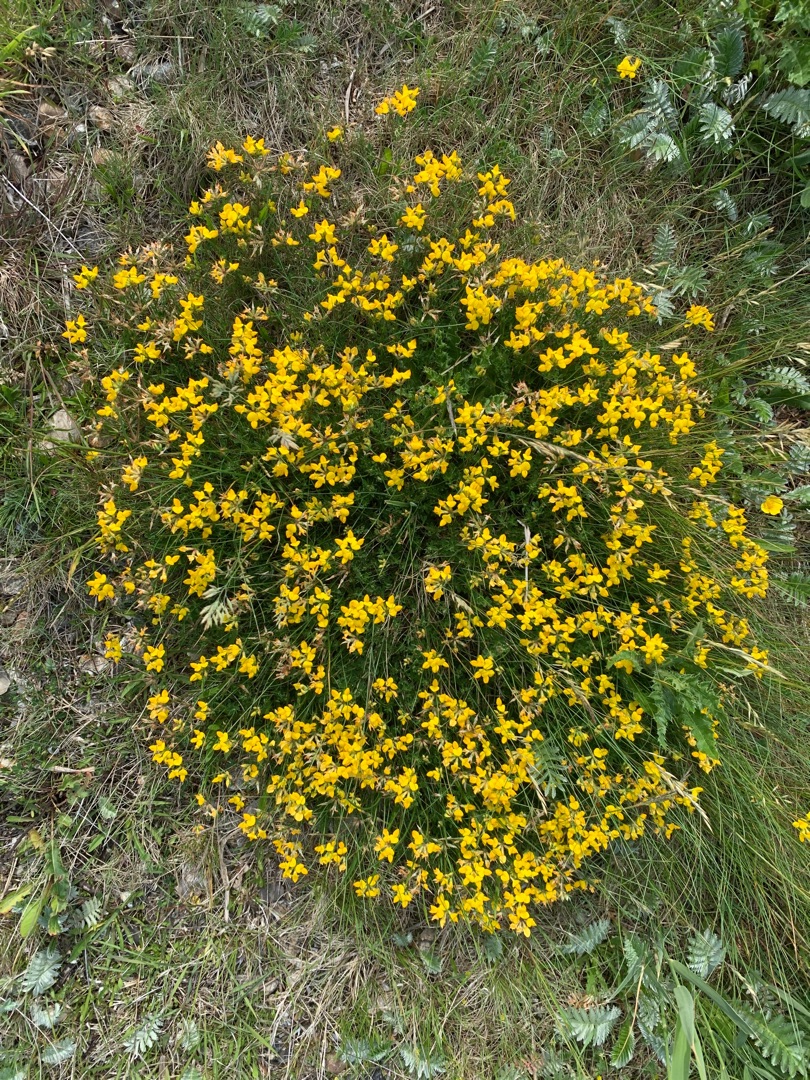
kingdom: Plantae
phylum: Tracheophyta
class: Magnoliopsida
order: Fabales
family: Fabaceae
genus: Lotus
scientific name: Lotus corniculatus
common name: Almindelig kællingetand
